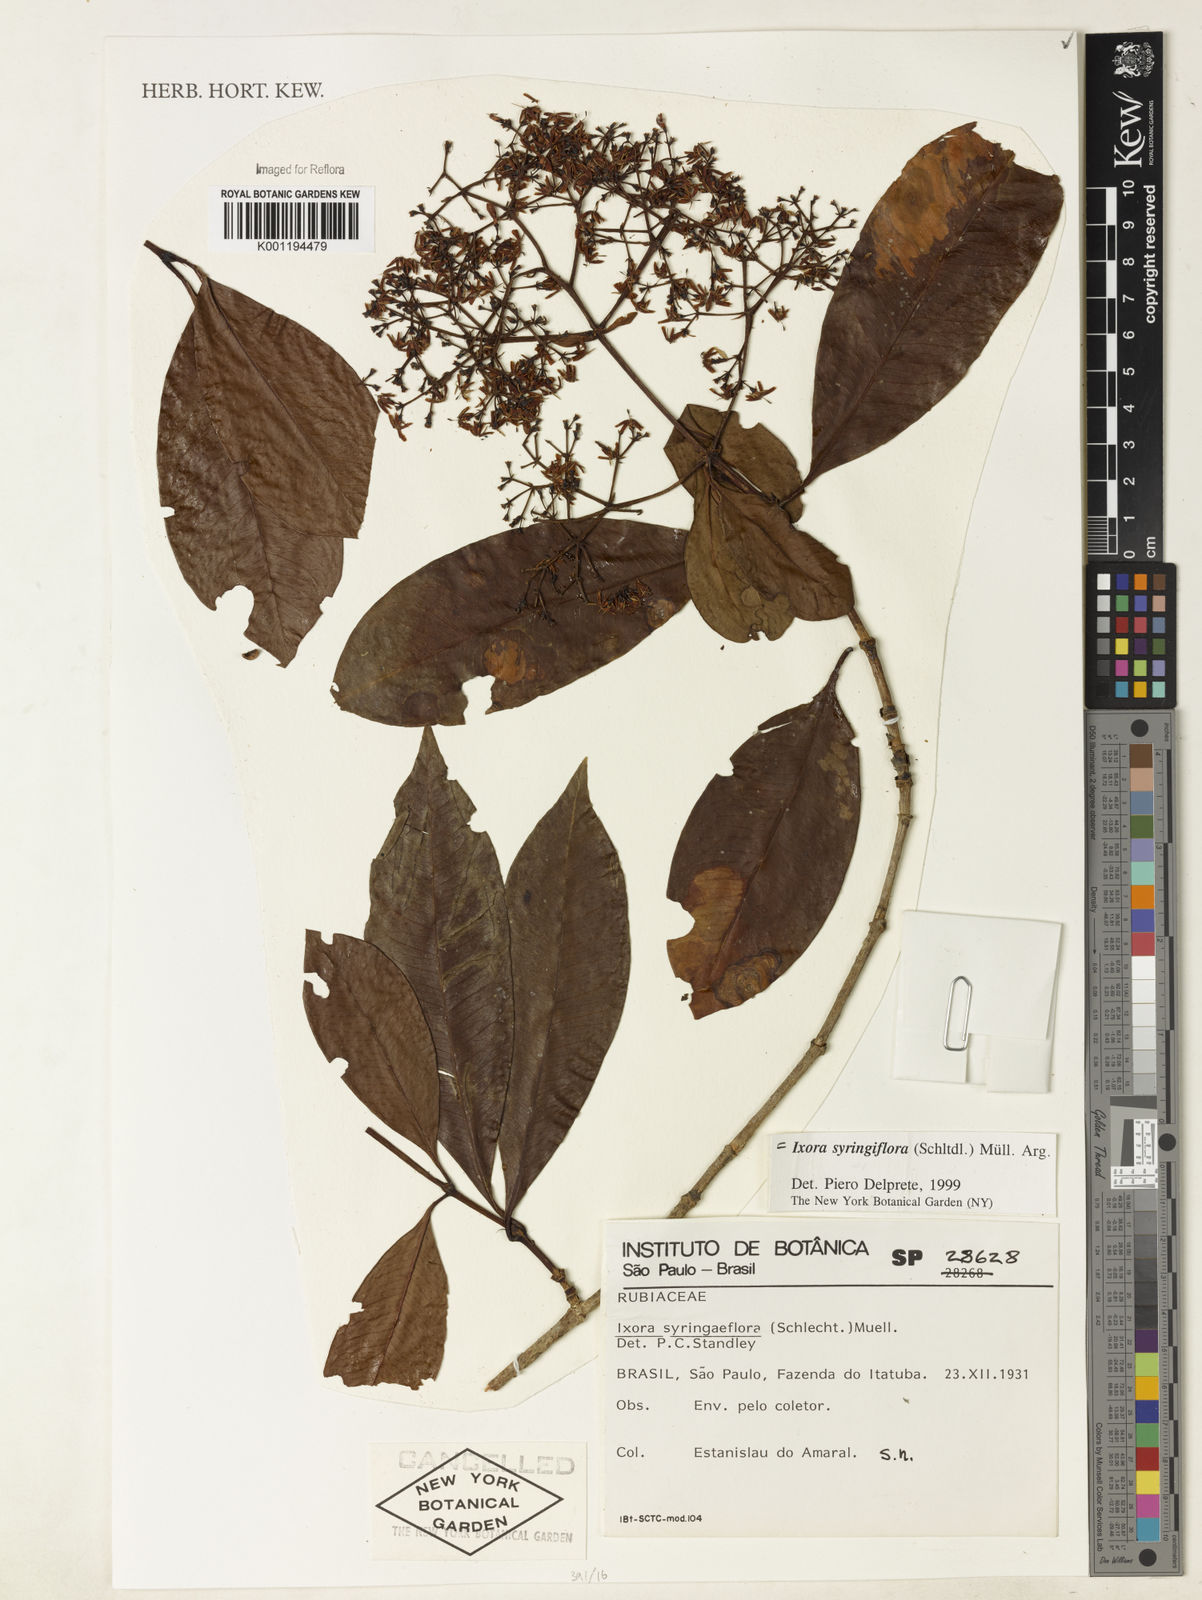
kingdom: Plantae
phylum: Tracheophyta
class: Magnoliopsida
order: Gentianales
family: Rubiaceae
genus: Ixora
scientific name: Ixora
